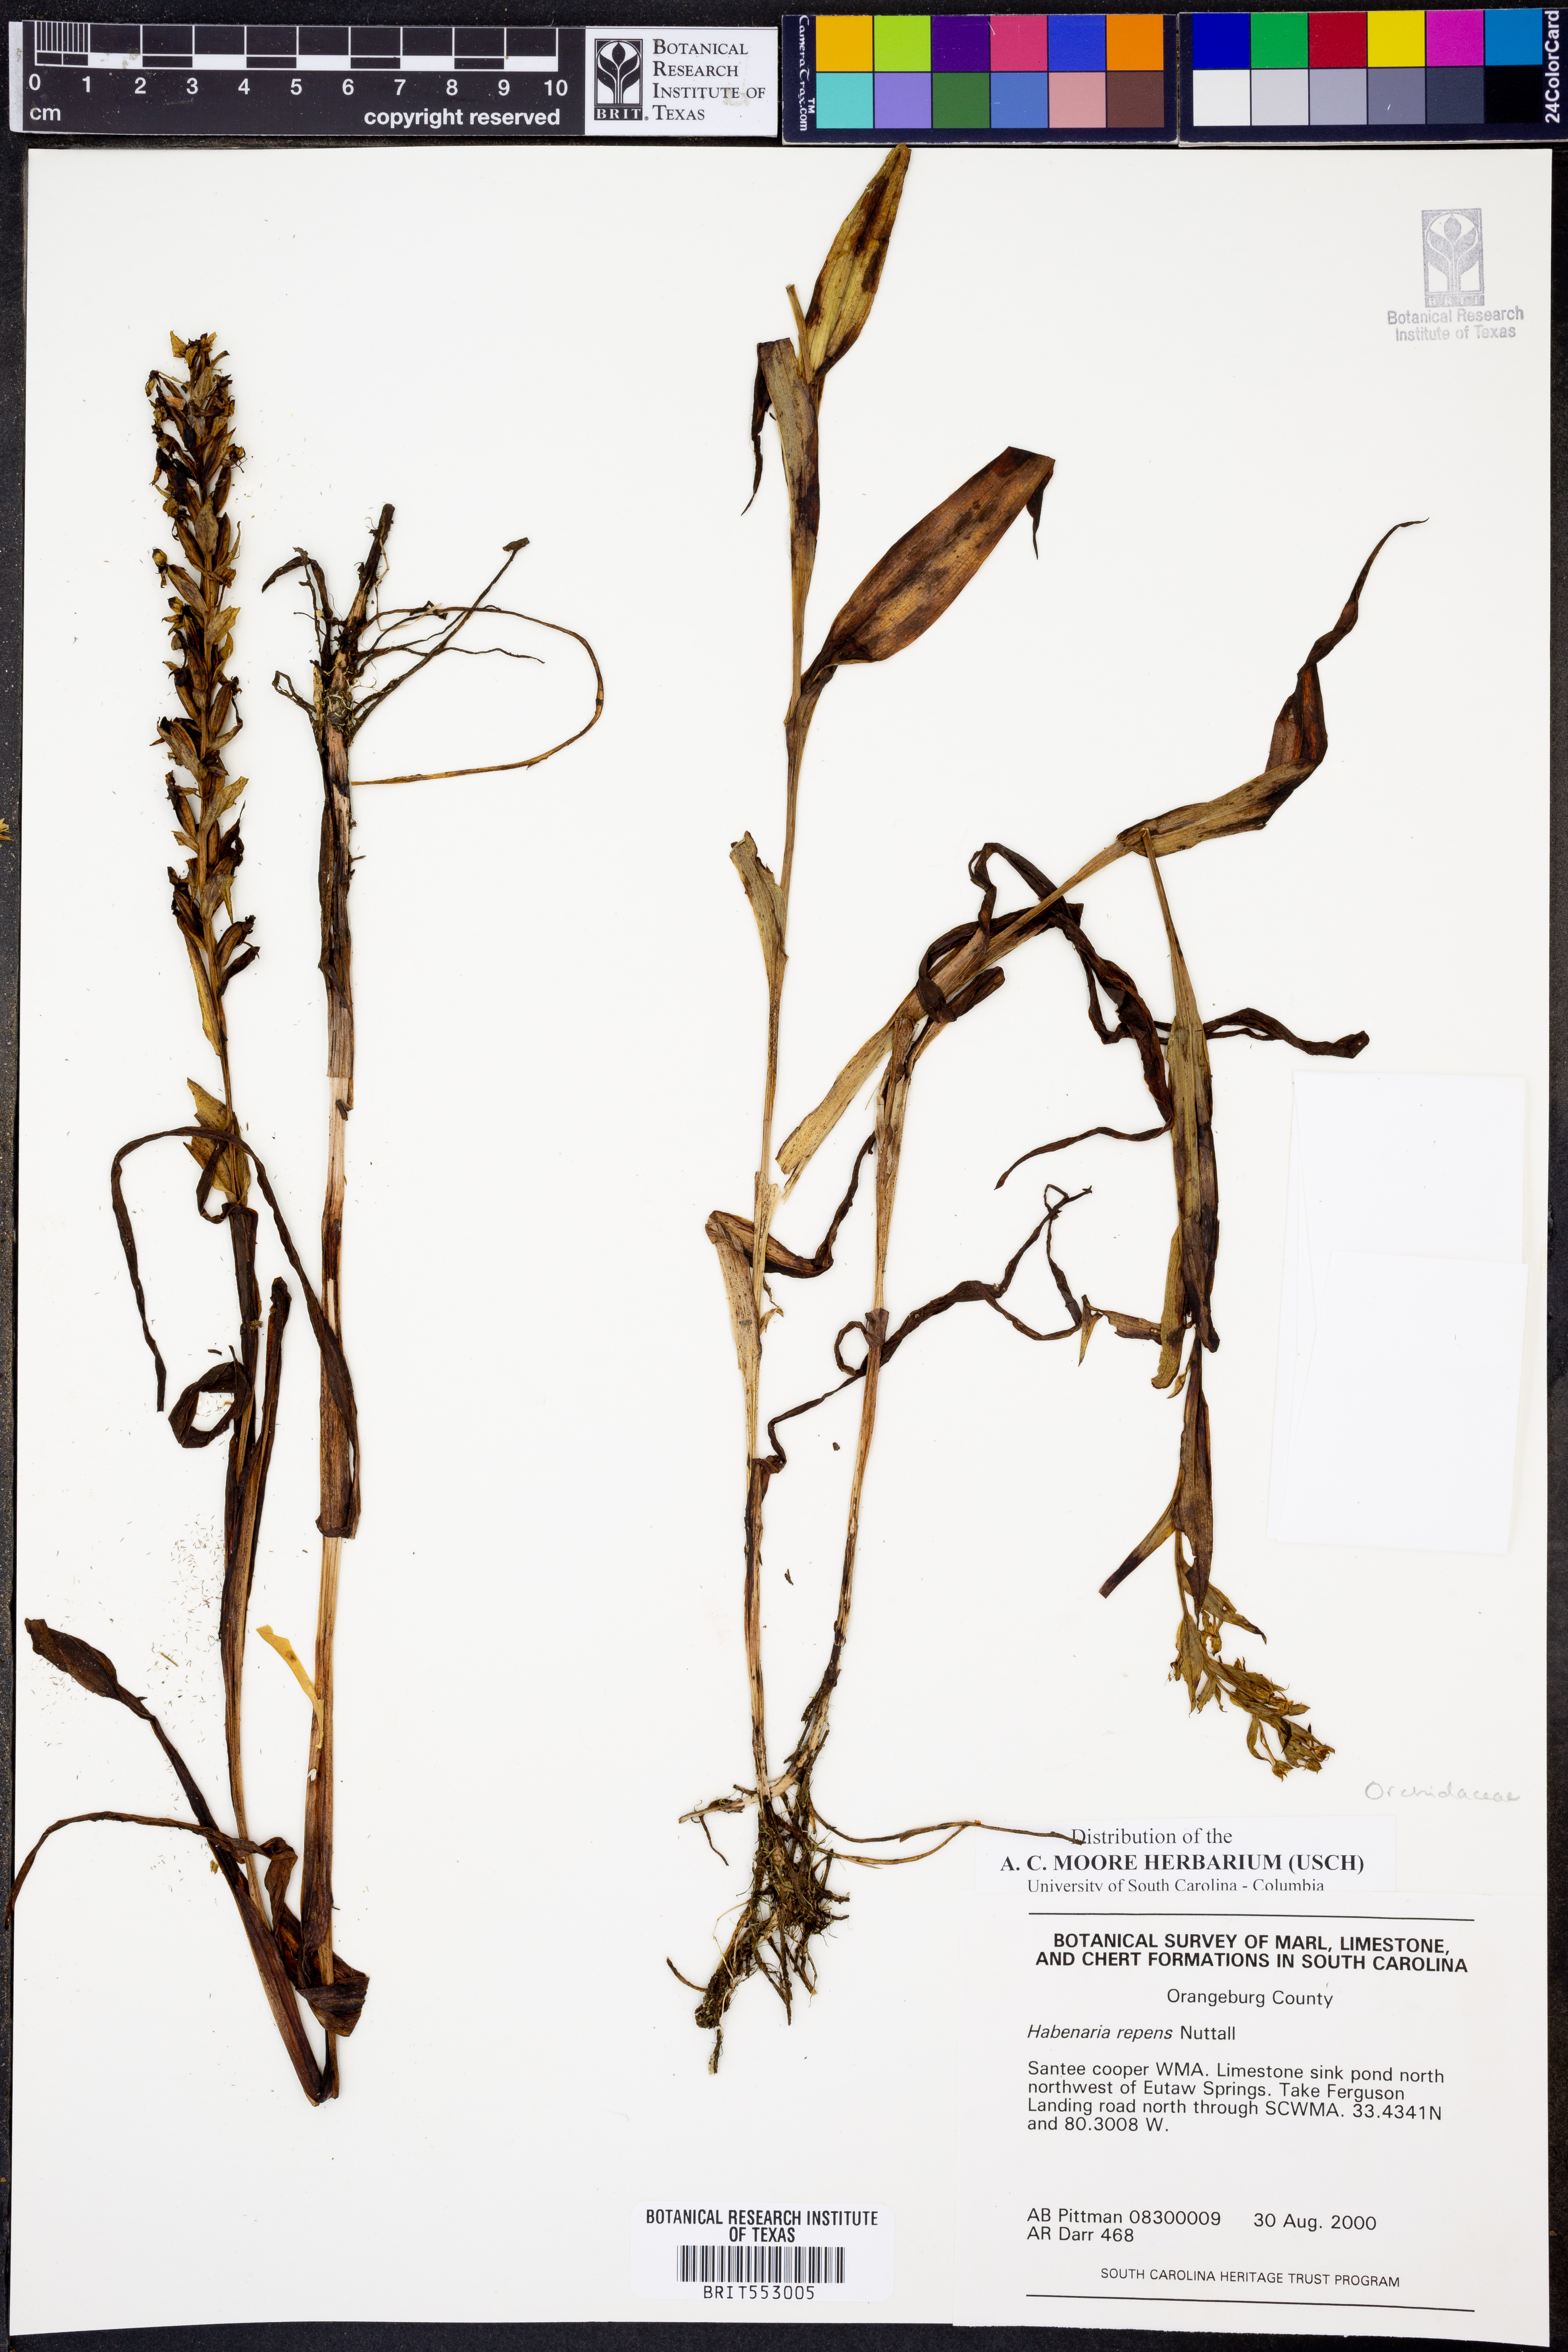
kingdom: Plantae
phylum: Tracheophyta
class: Liliopsida
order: Asparagales
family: Orchidaceae
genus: Habenaria
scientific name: Habenaria repens
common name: Water orchid
